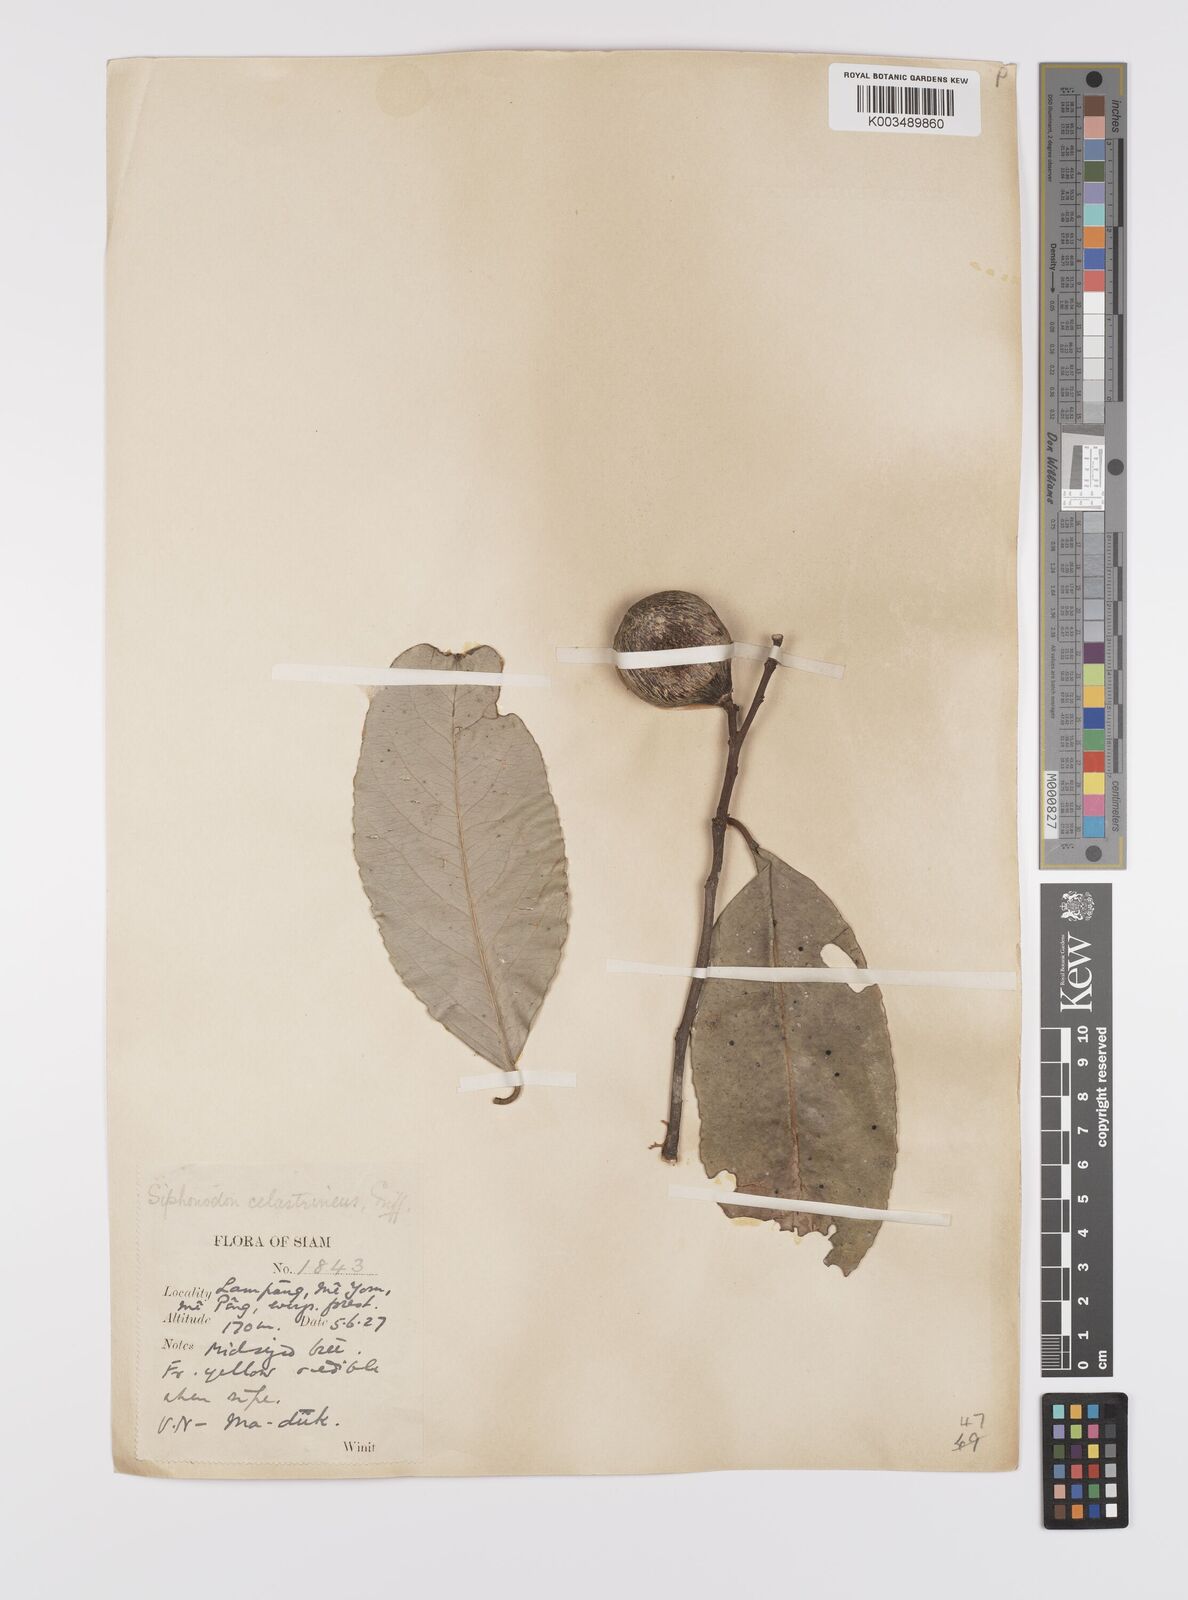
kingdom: Plantae
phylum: Tracheophyta
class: Magnoliopsida
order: Celastrales
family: Celastraceae
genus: Siphonodon
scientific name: Siphonodon celastrineus
